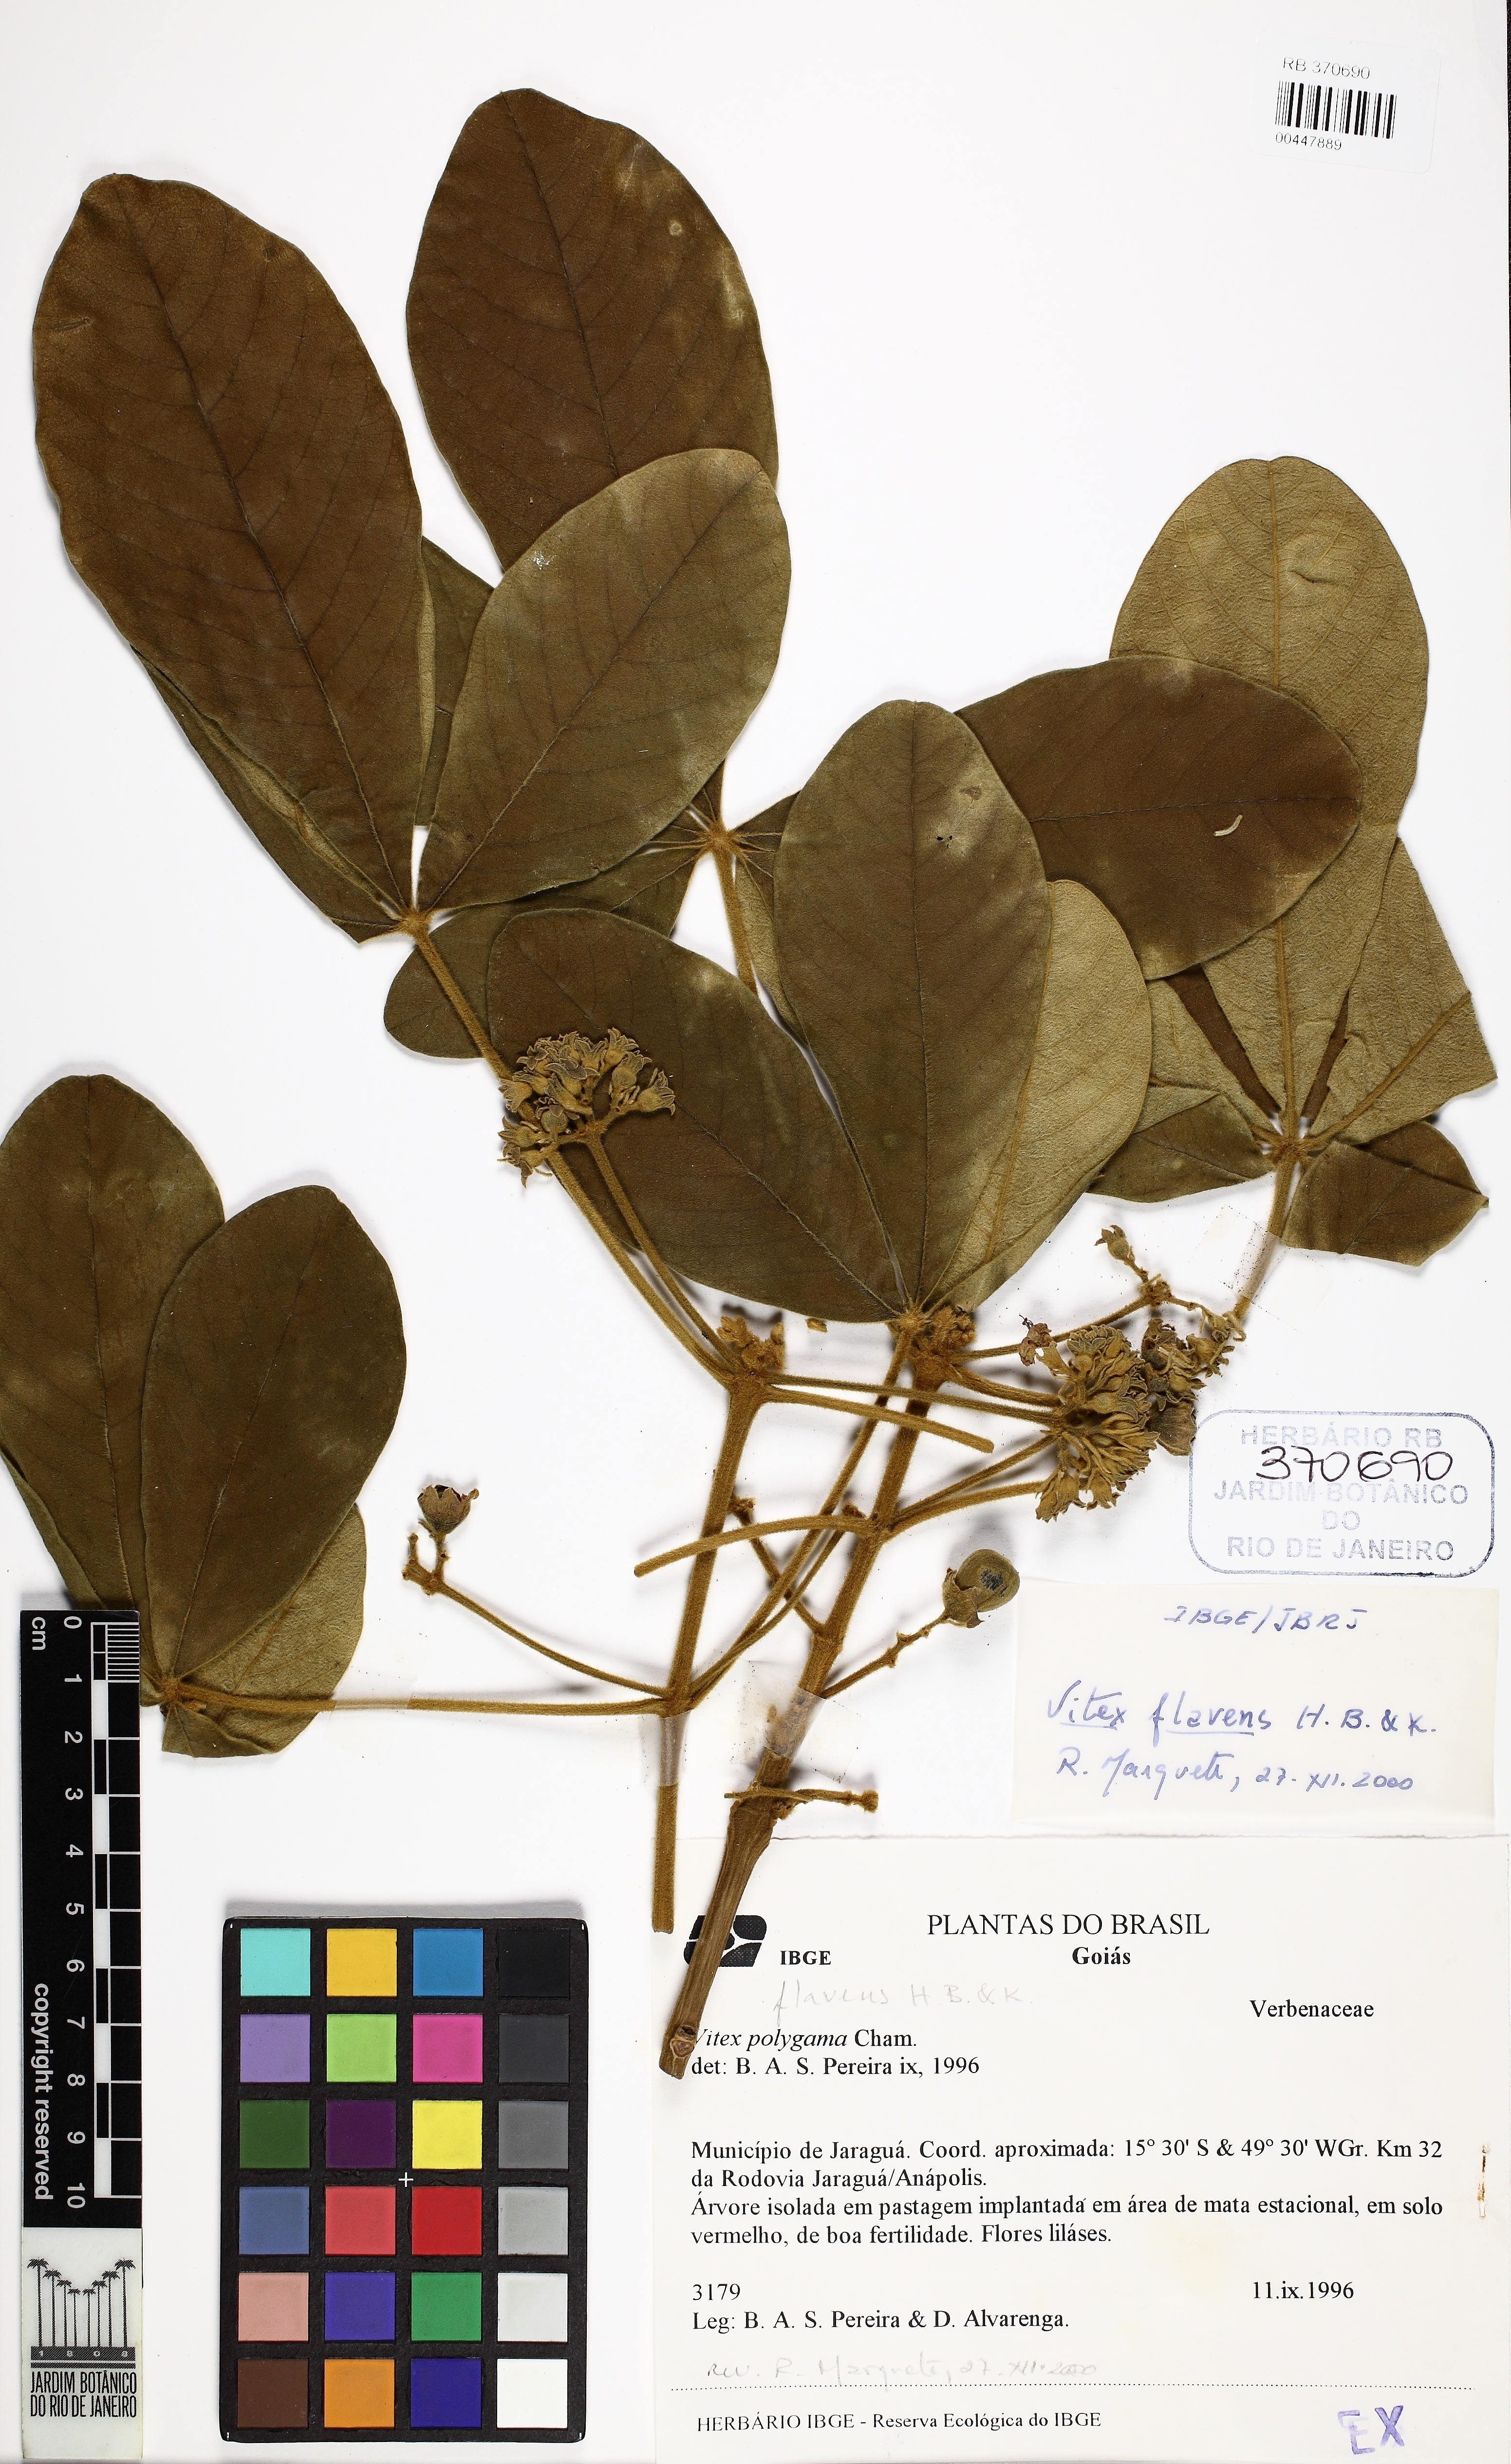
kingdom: Plantae
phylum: Tracheophyta
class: Magnoliopsida
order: Lamiales
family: Lamiaceae
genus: Vitex
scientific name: Vitex flavens
